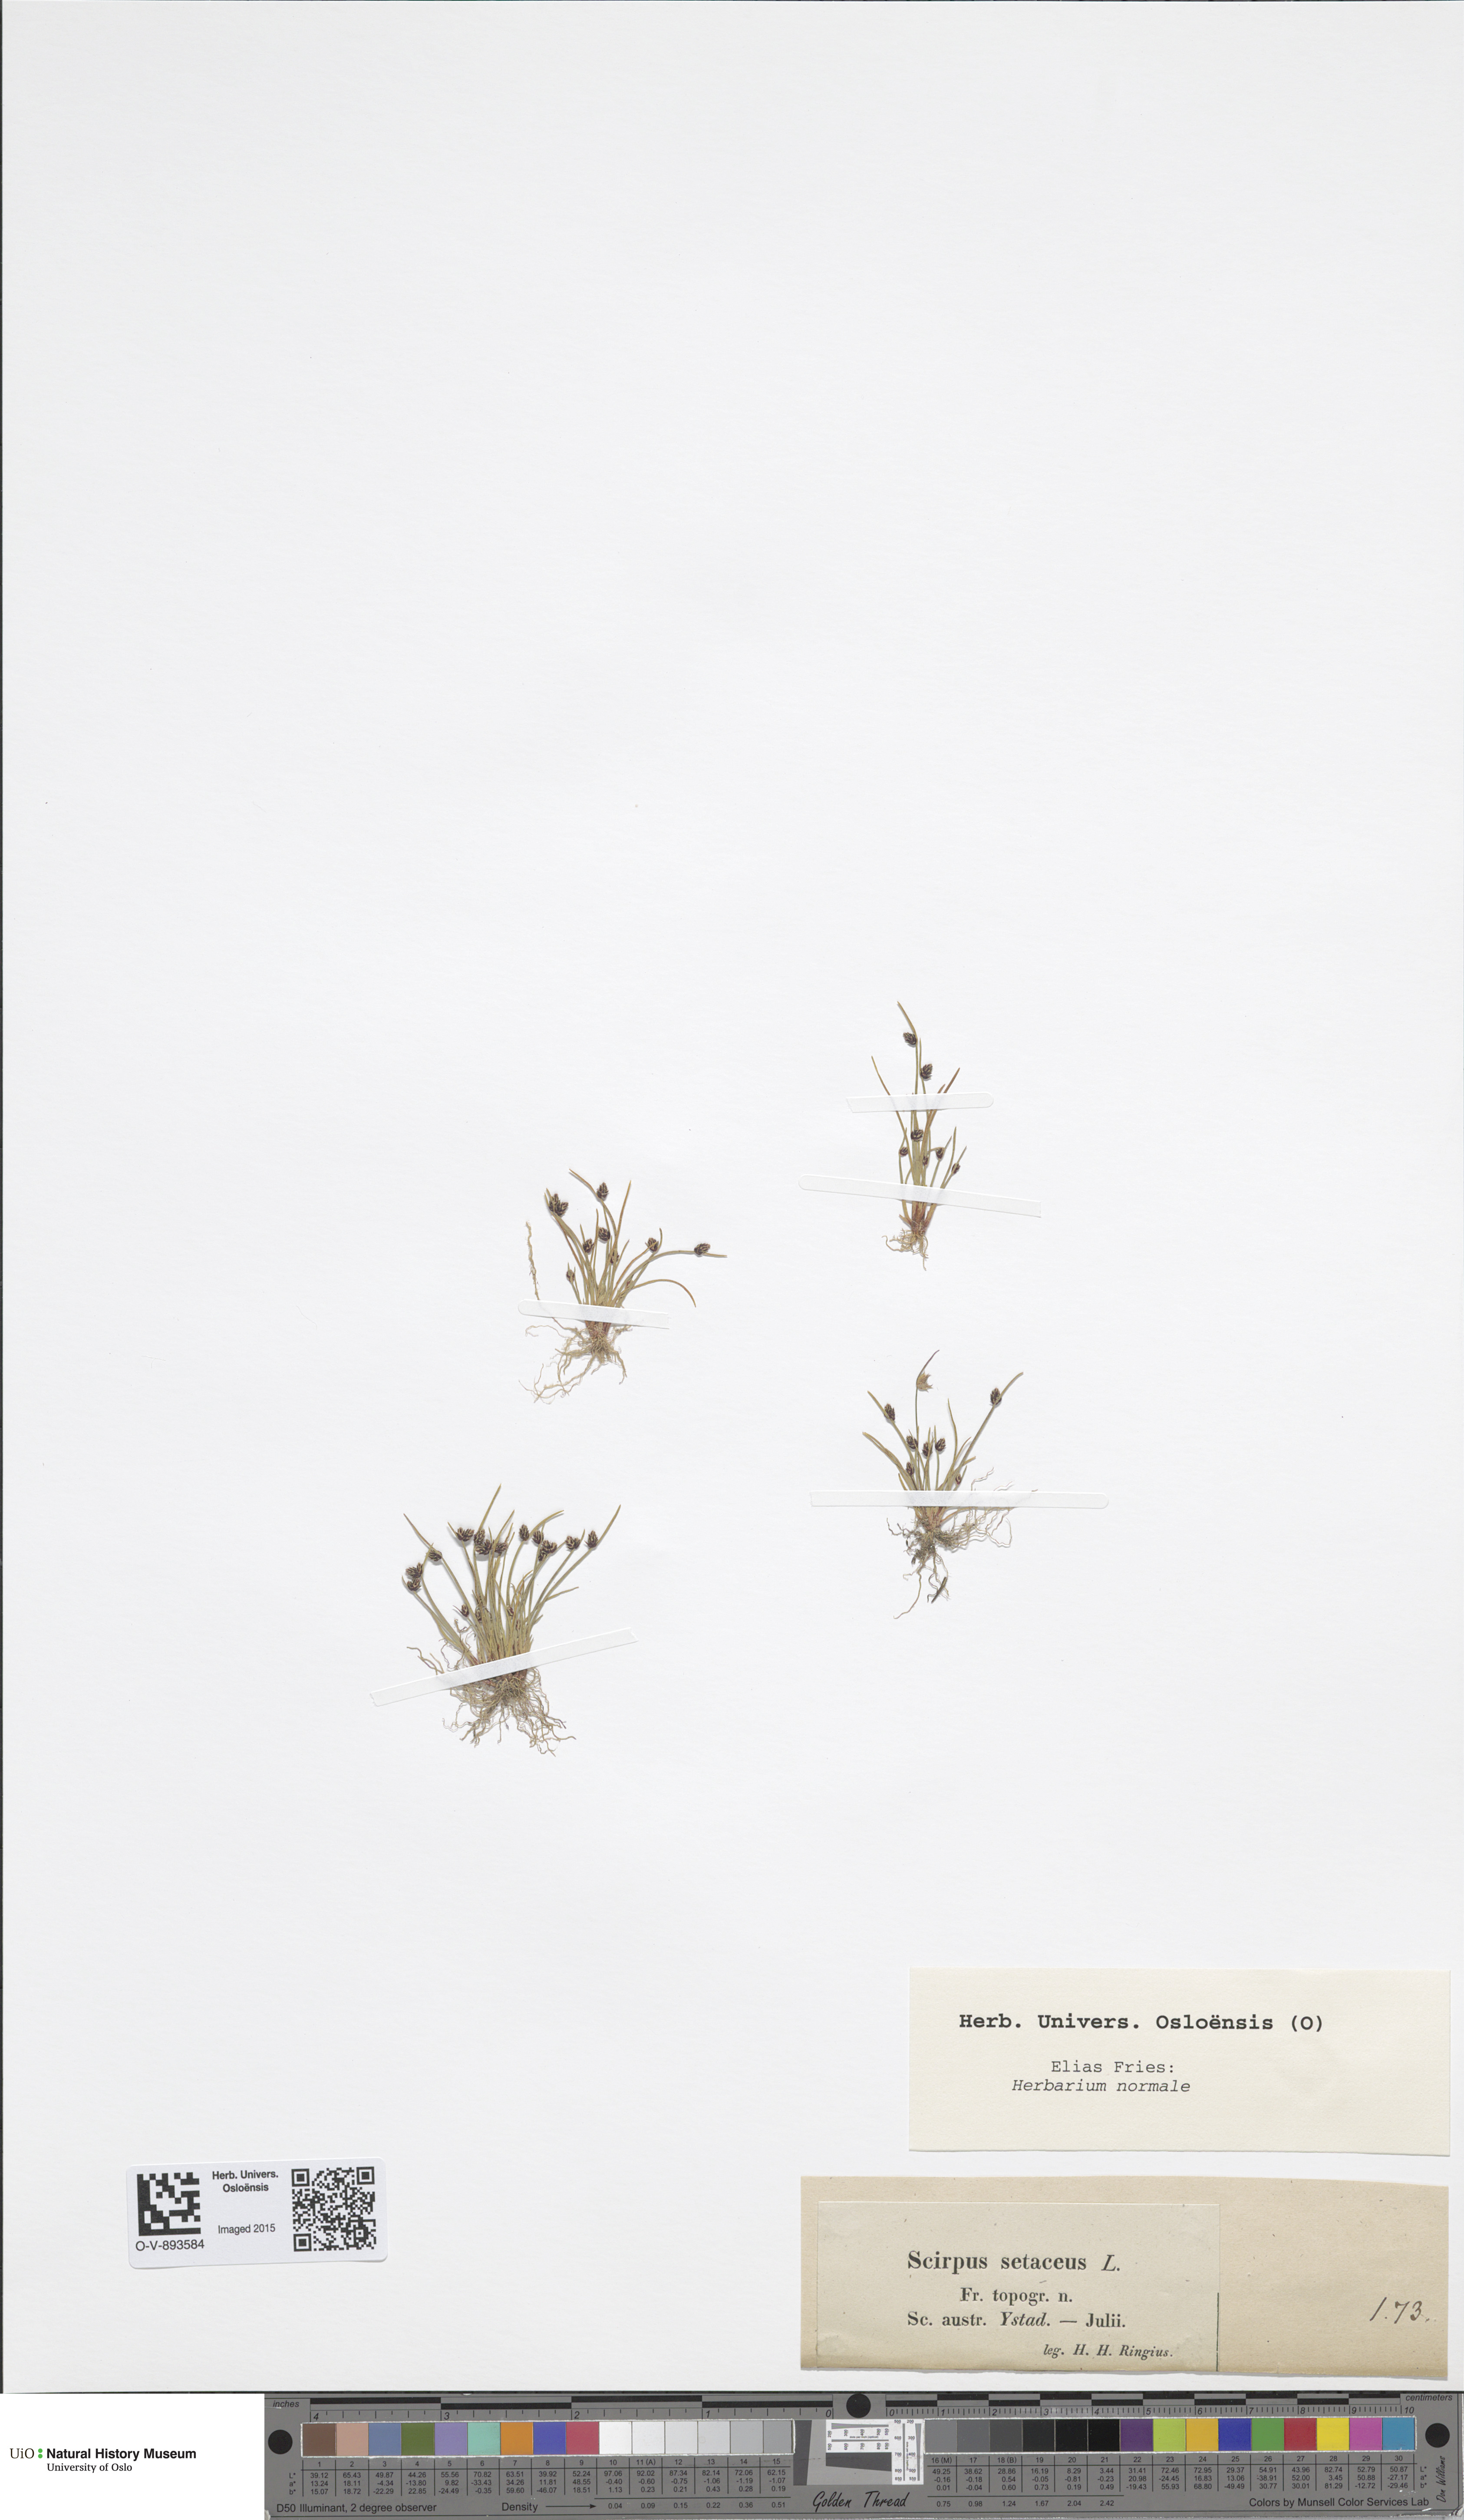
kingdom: Plantae
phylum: Tracheophyta
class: Liliopsida
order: Poales
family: Cyperaceae
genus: Isolepis
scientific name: Isolepis setacea
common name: Bristle club-rush
